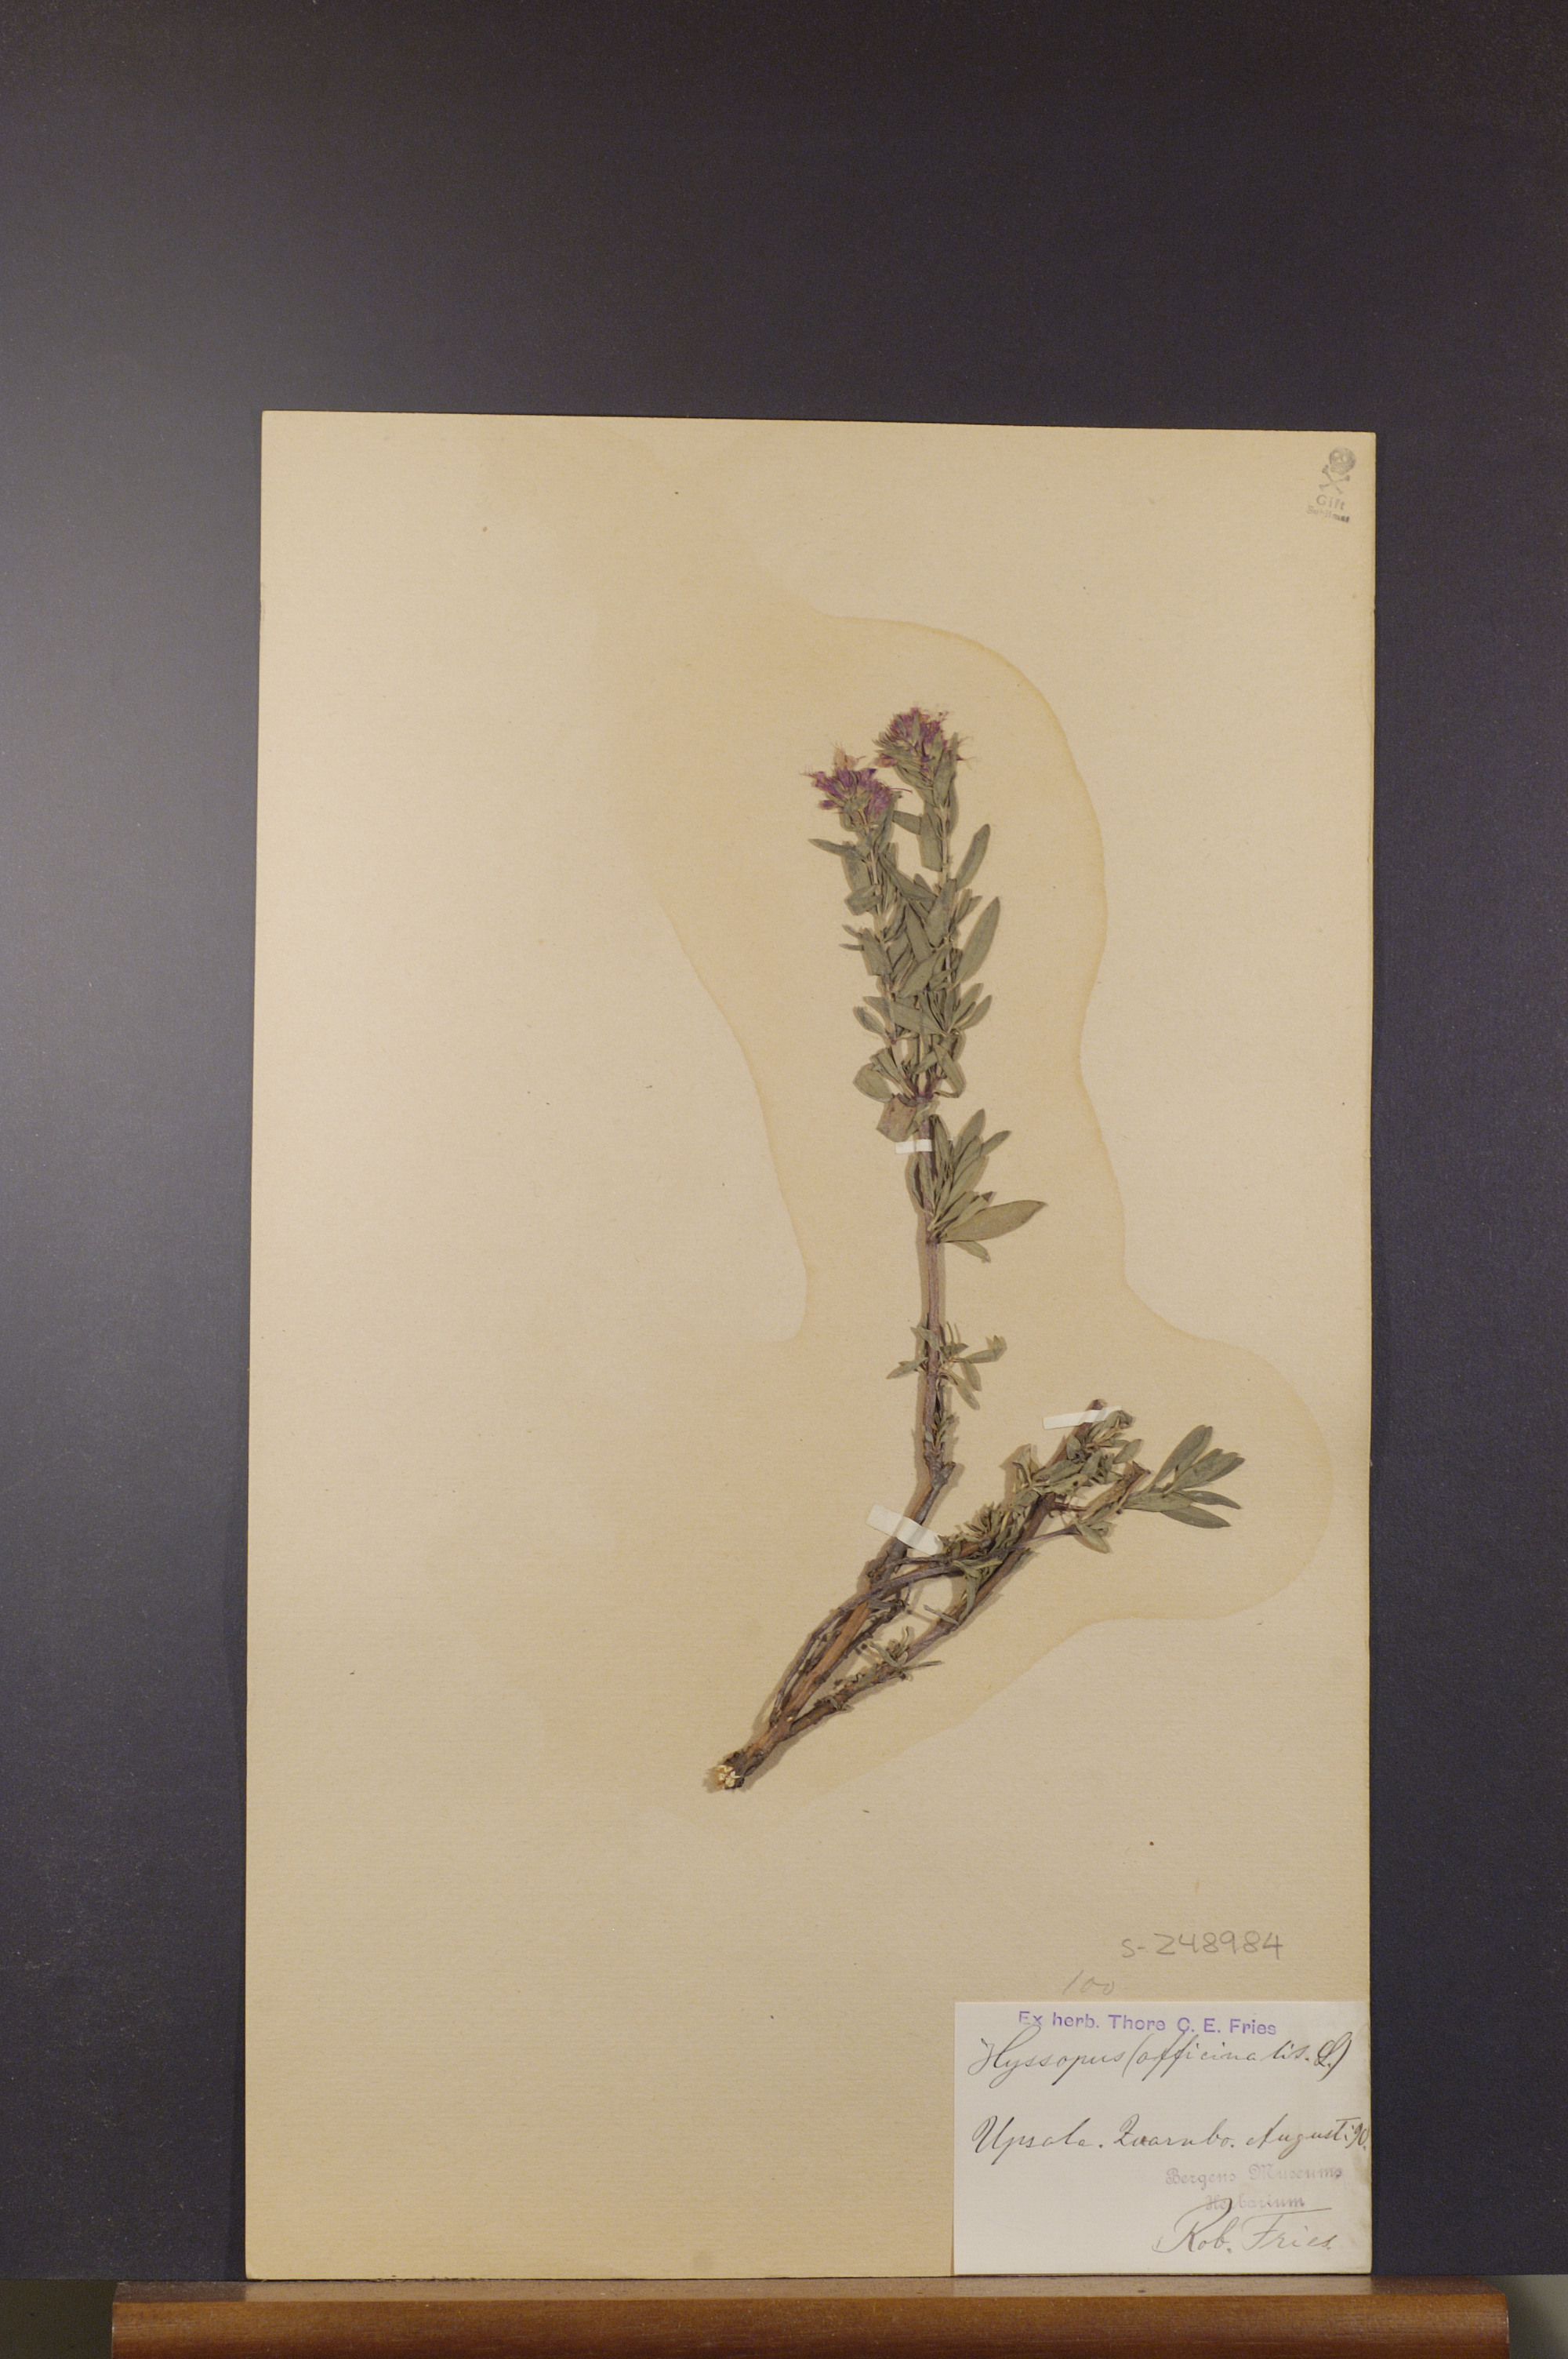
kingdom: Plantae
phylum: Tracheophyta
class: Magnoliopsida
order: Lamiales
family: Lamiaceae
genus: Hyssopus
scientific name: Hyssopus officinalis
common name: Hyssop
